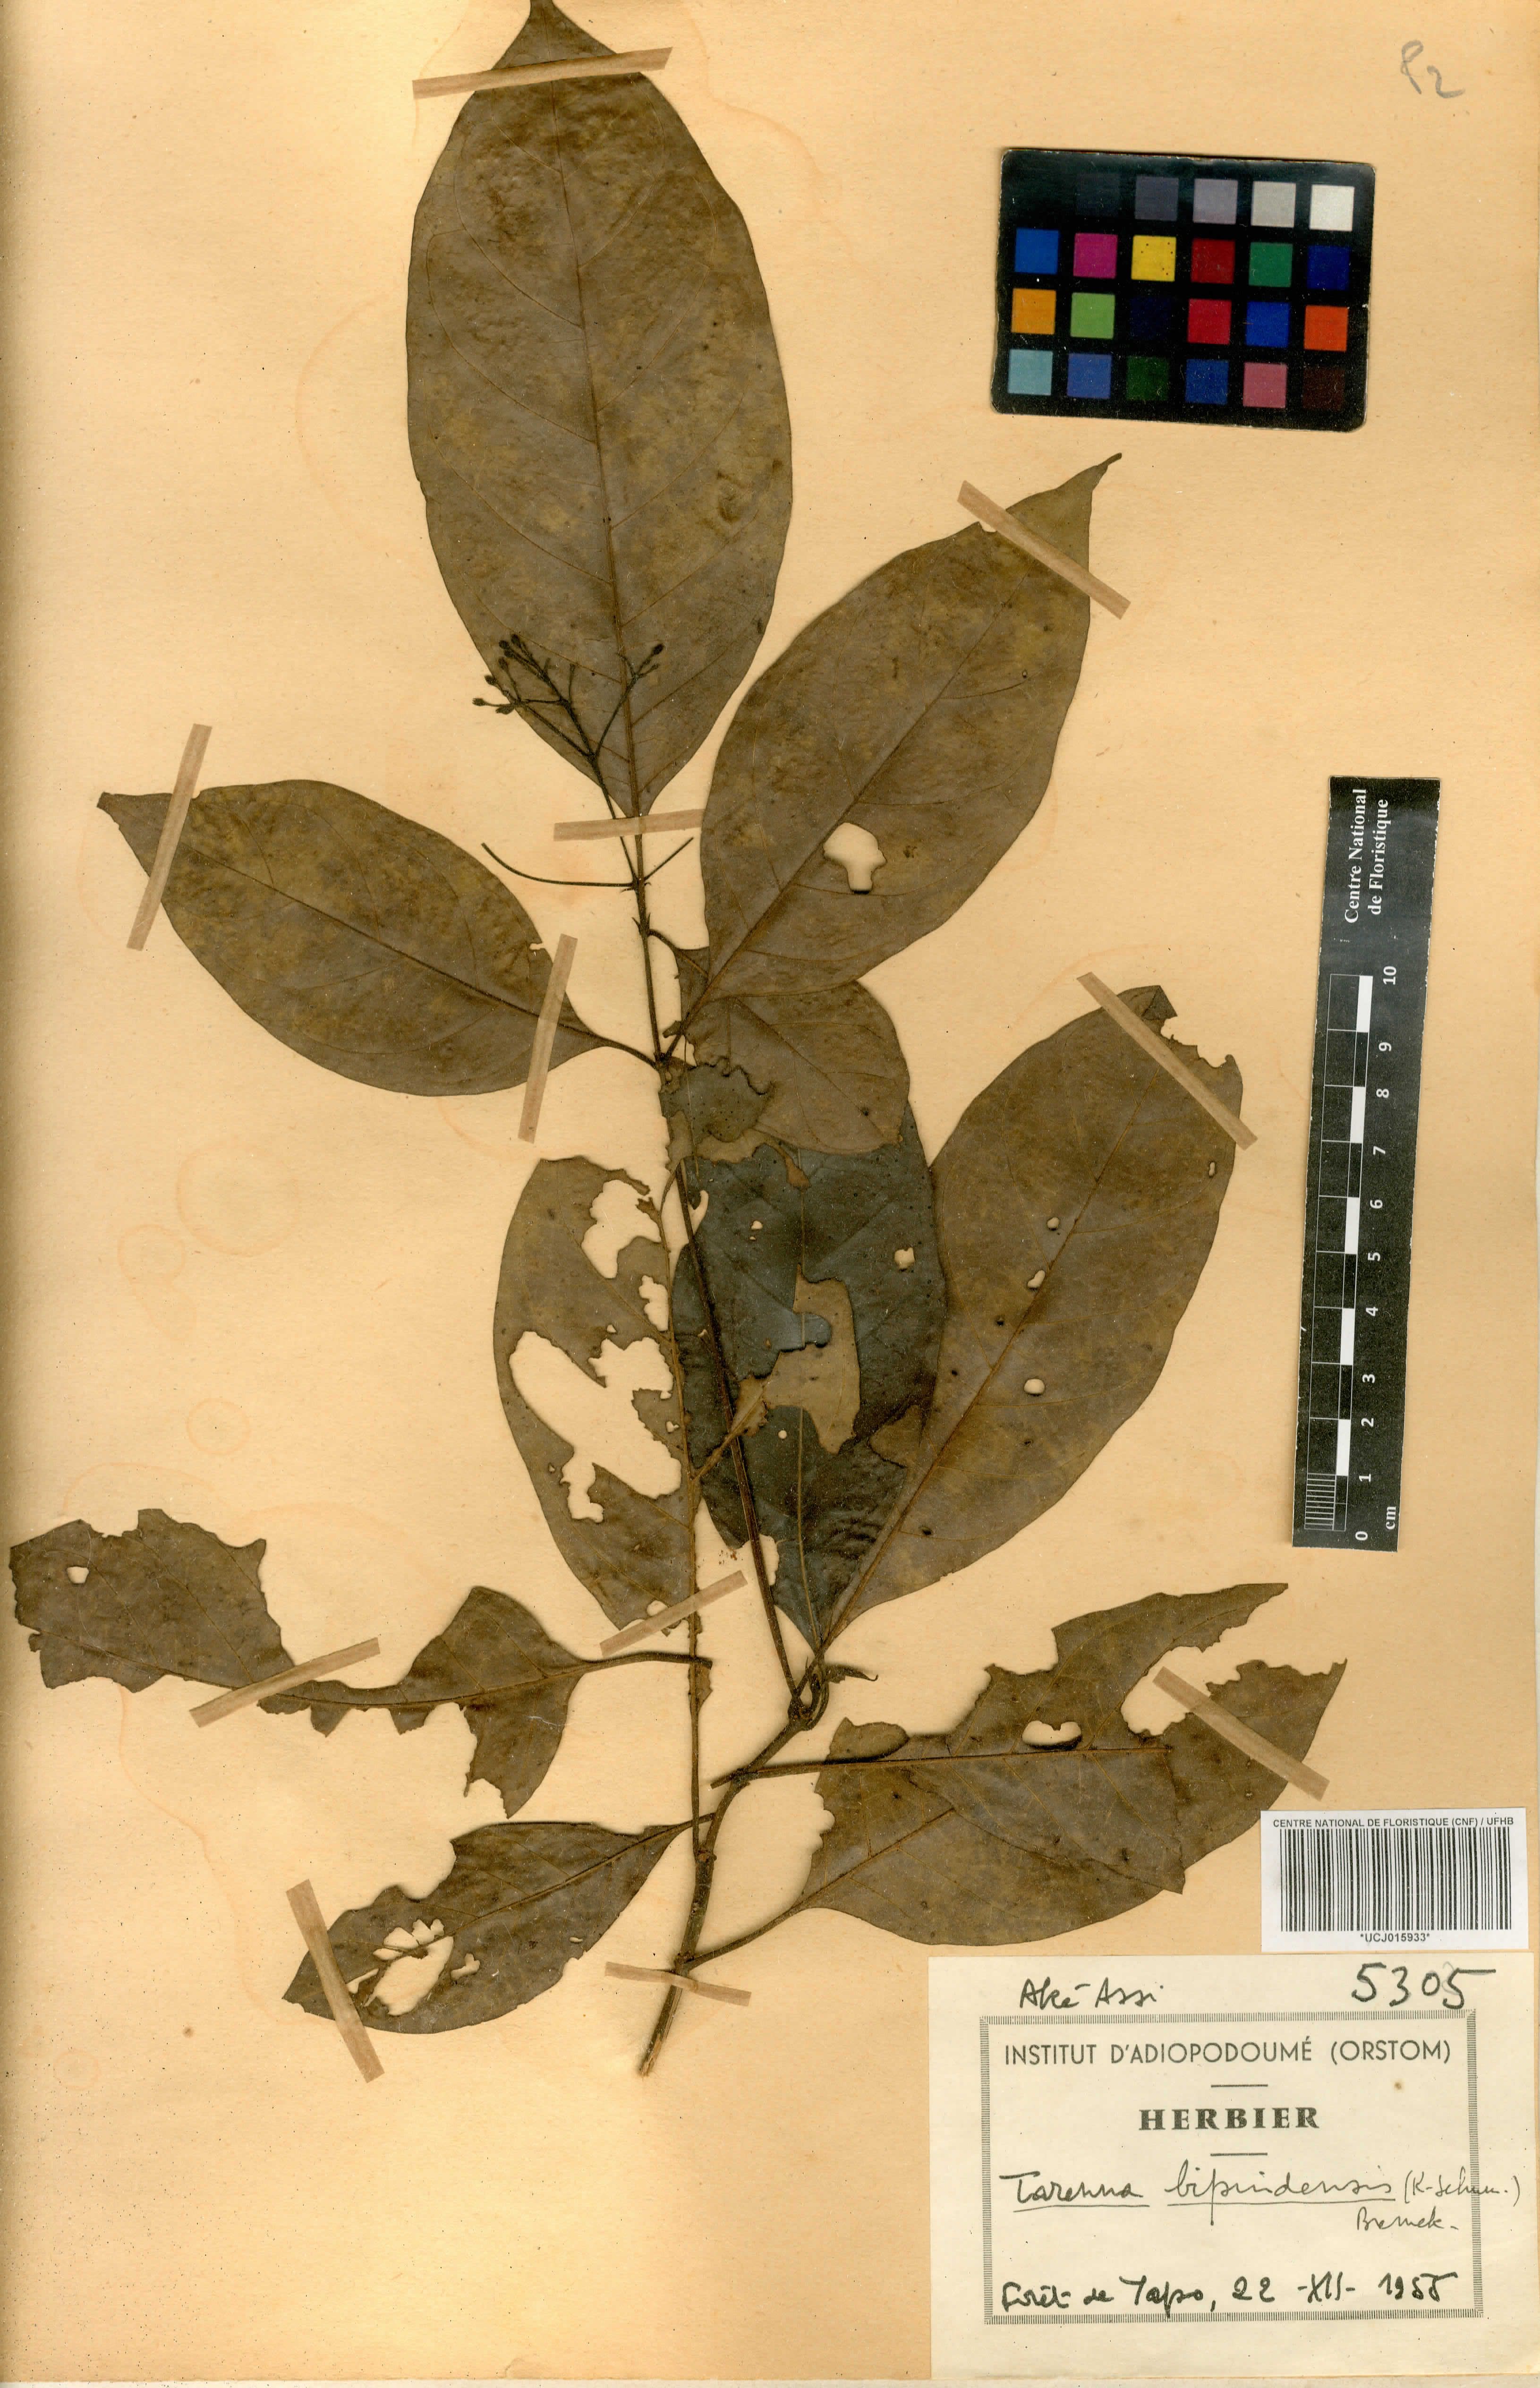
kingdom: Plantae
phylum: Tracheophyta
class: Magnoliopsida
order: Gentianales
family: Rubiaceae
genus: Tarenna
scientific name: Tarenna bipindensis
